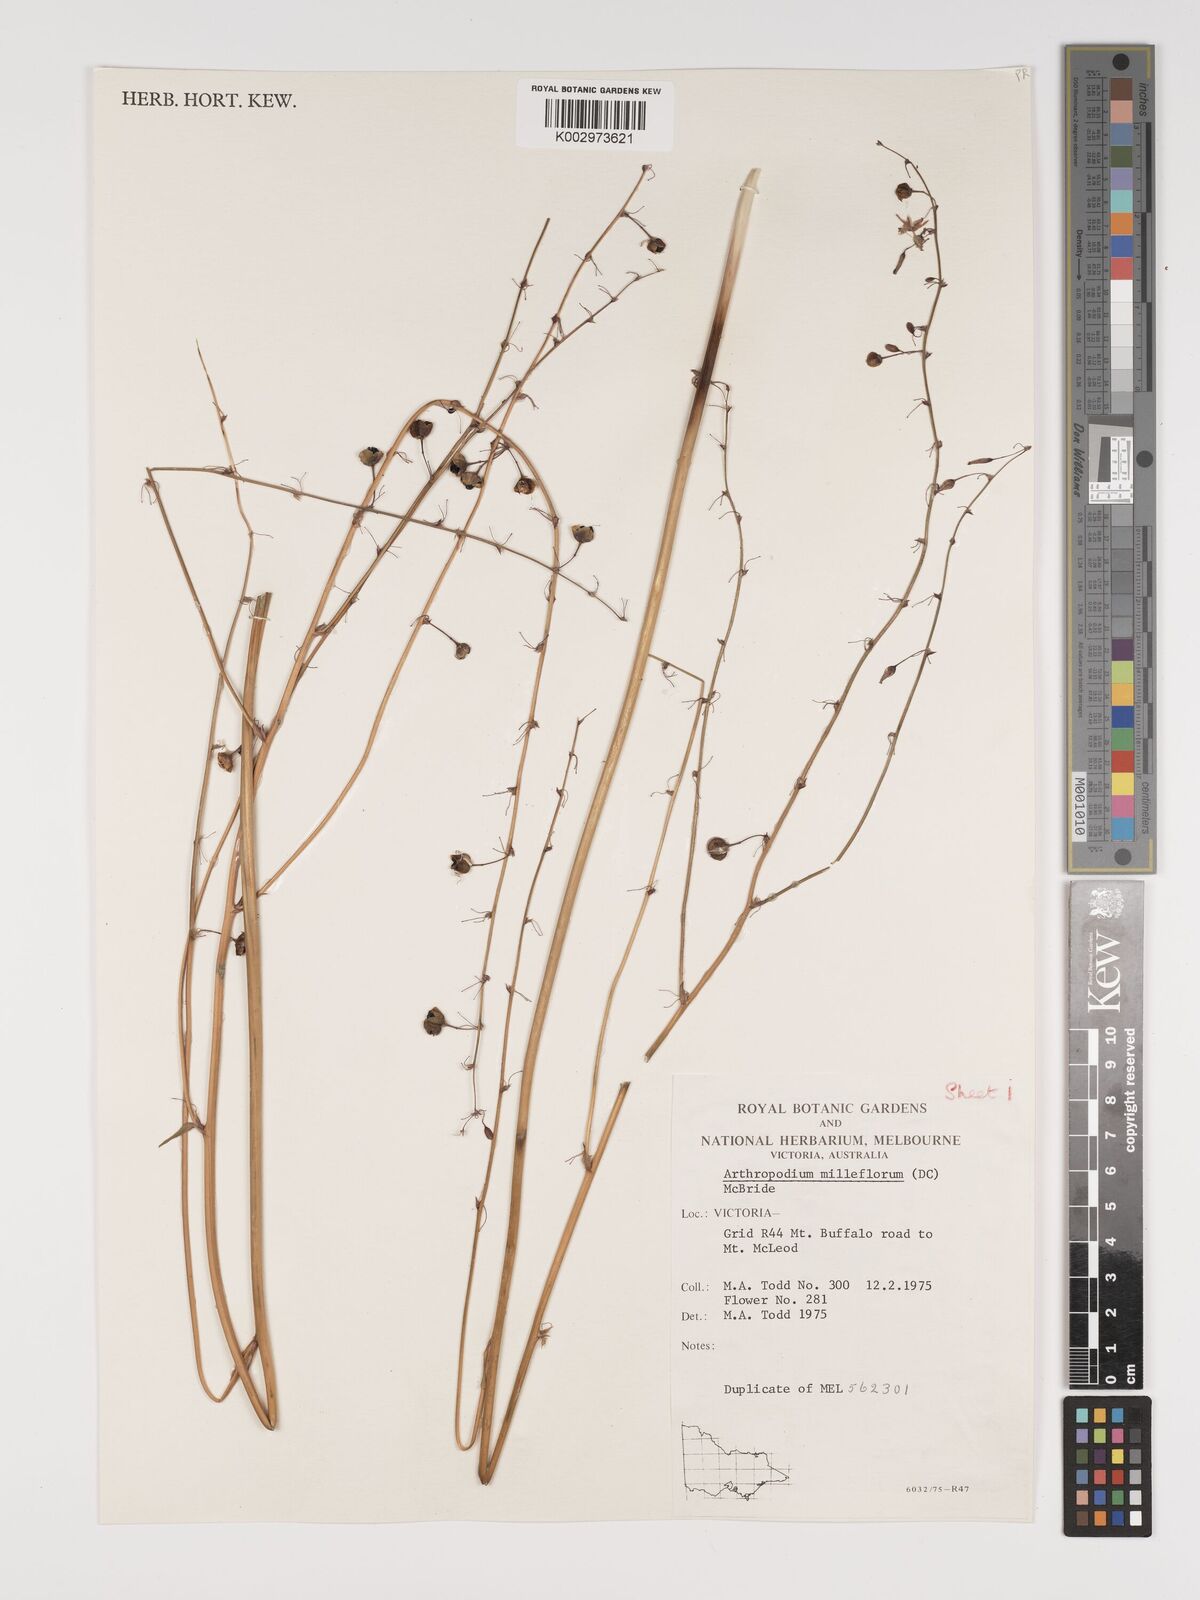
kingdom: Plantae
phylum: Tracheophyta
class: Liliopsida
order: Asparagales
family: Asparagaceae
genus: Arthropodium
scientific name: Arthropodium milleflorum
